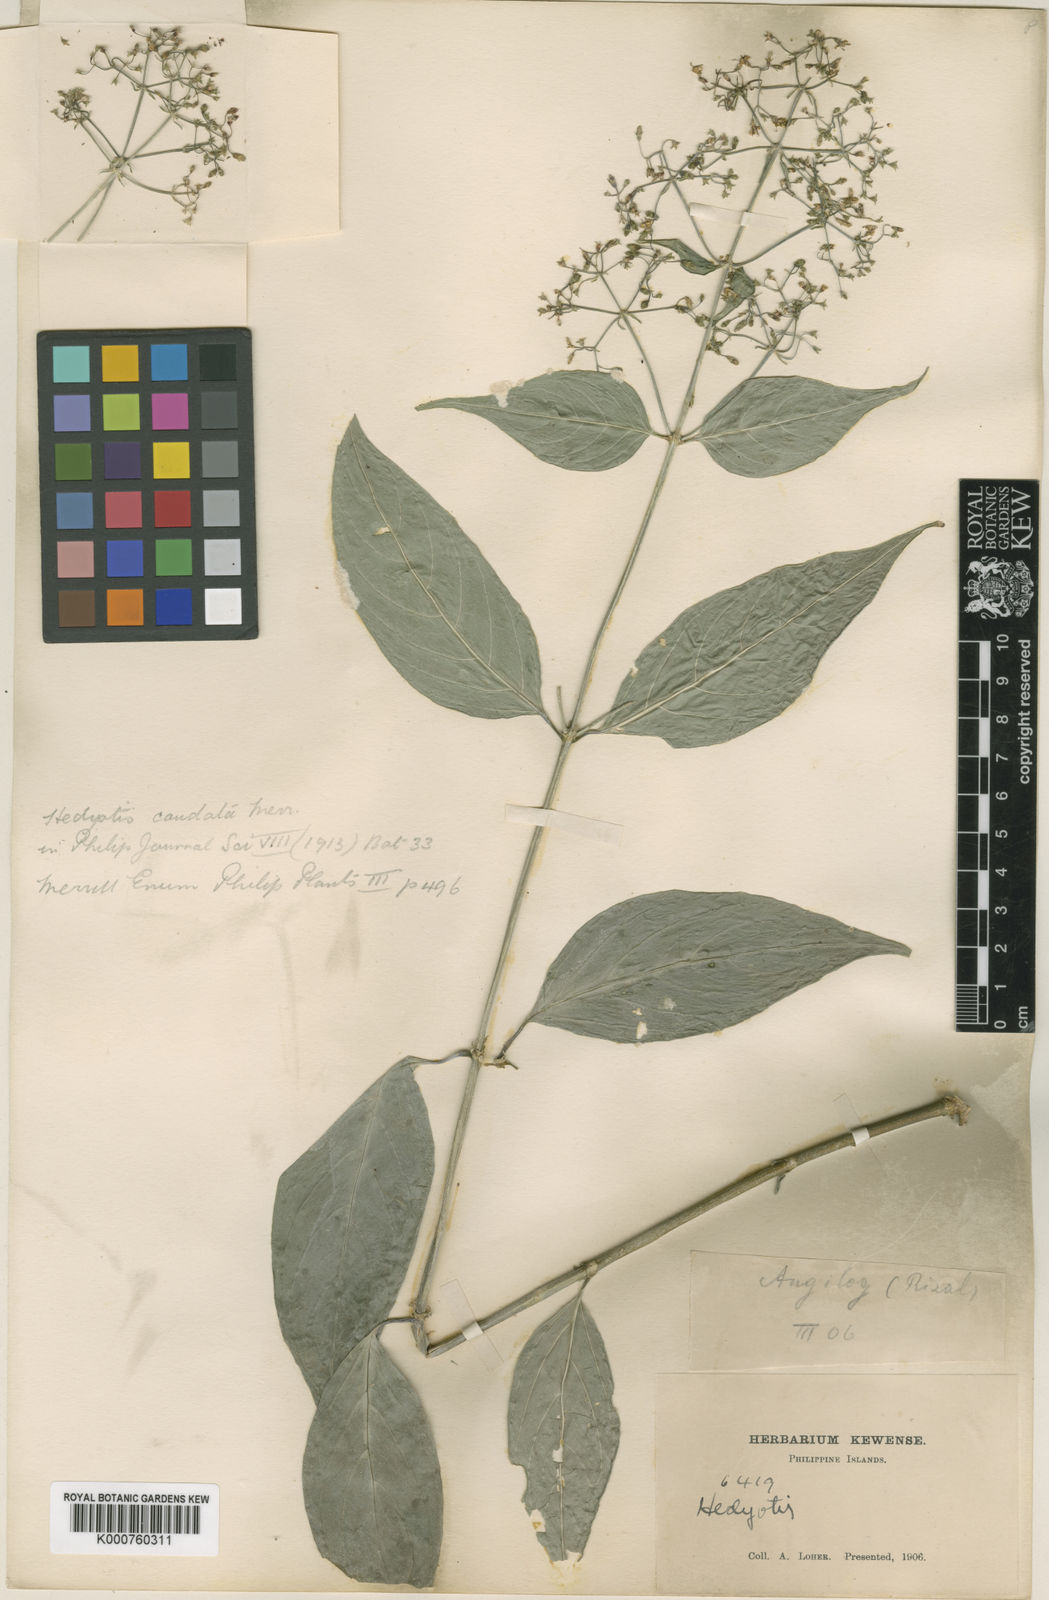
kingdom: Plantae
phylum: Tracheophyta
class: Magnoliopsida
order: Gentianales
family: Rubiaceae
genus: Hedyotis
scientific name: Hedyotis caudata
